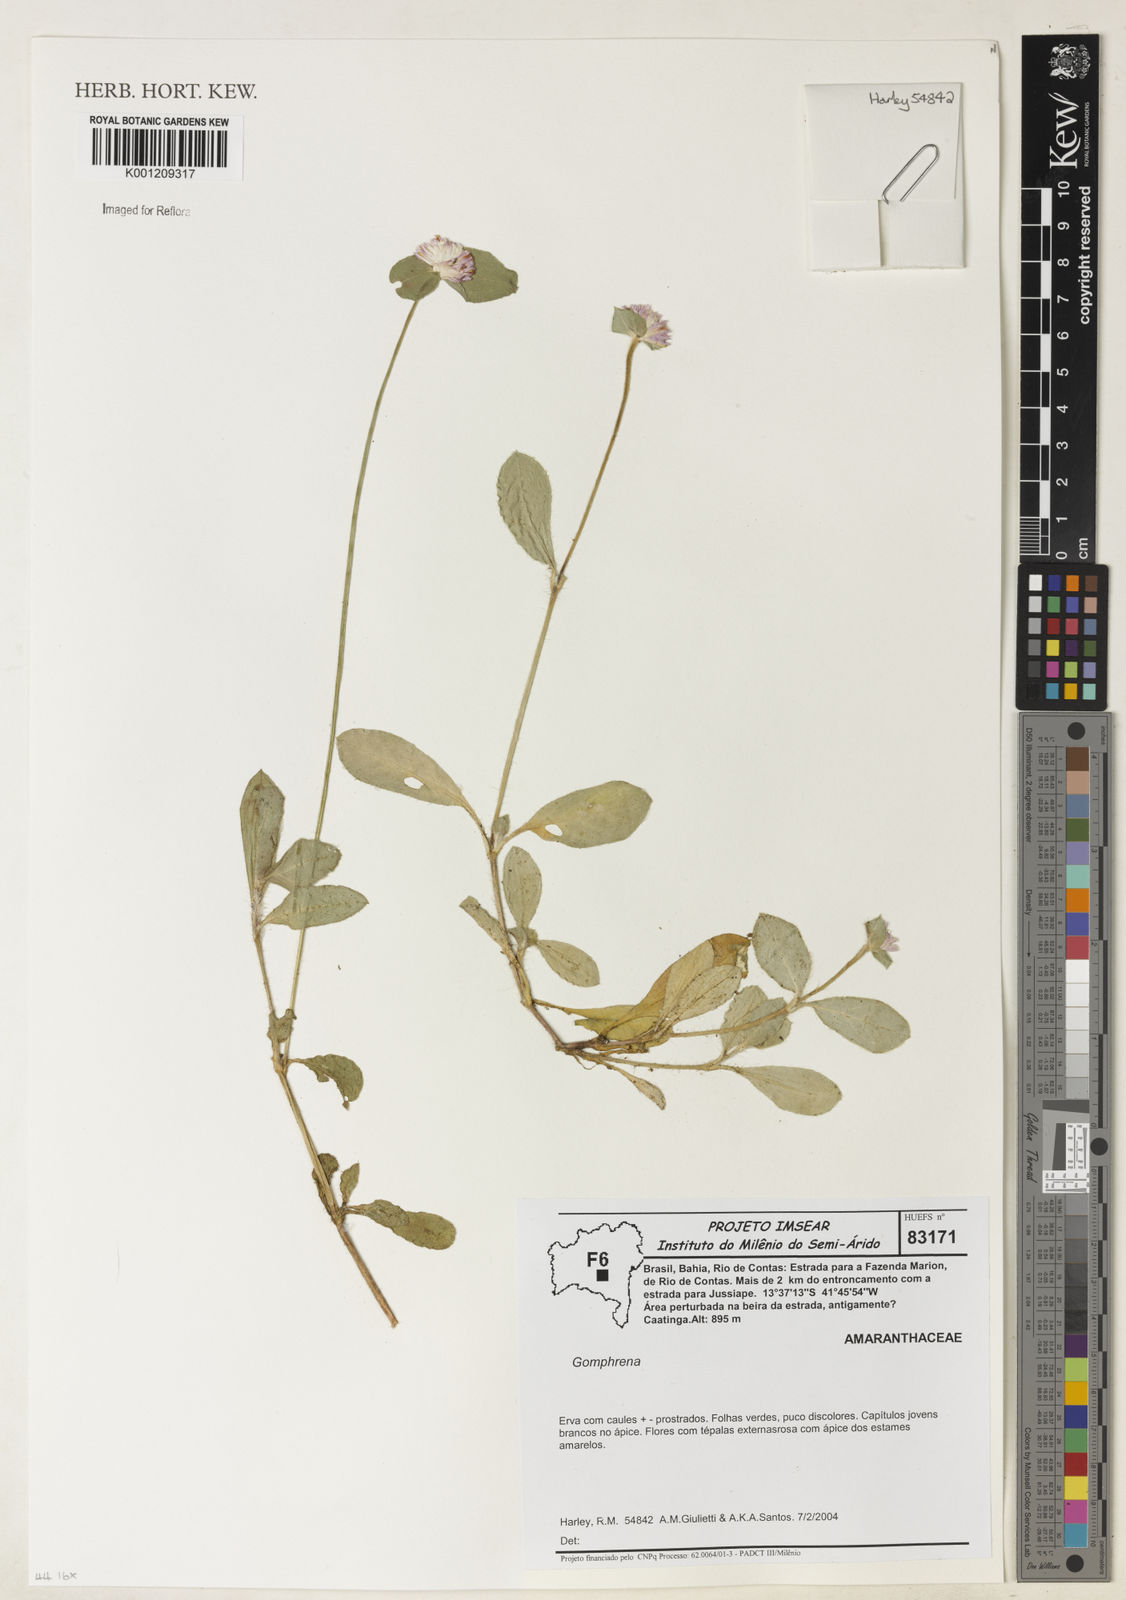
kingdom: Plantae
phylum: Tracheophyta
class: Magnoliopsida
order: Caryophyllales
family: Amaranthaceae
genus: Gomphrena
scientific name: Gomphrena
